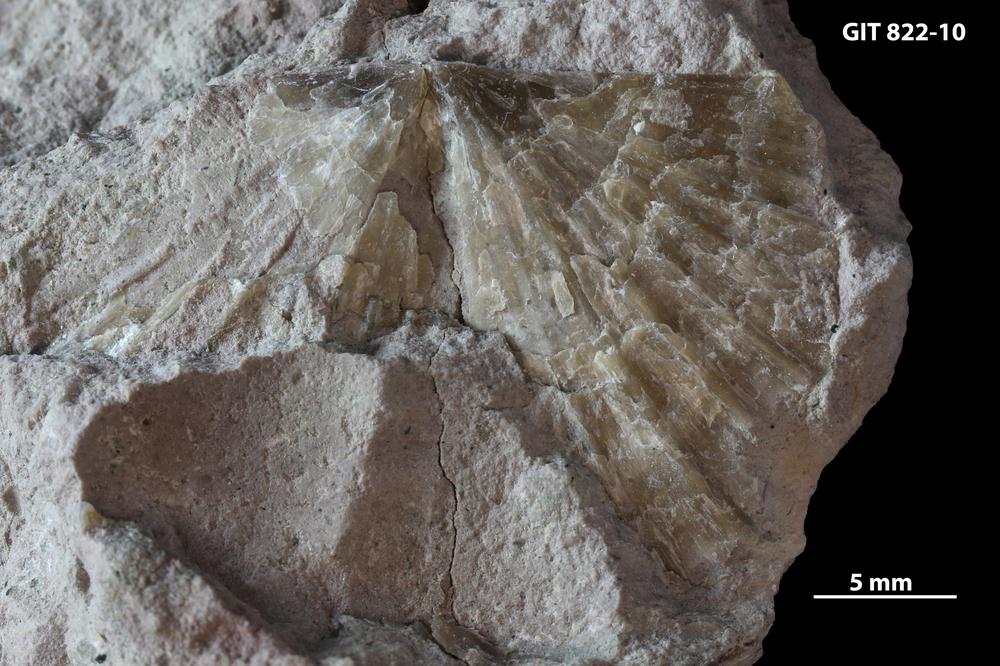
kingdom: Animalia
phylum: Brachiopoda
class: Rhynchonellata
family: Dalmanellidae
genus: Orthis
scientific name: Orthis callactis
